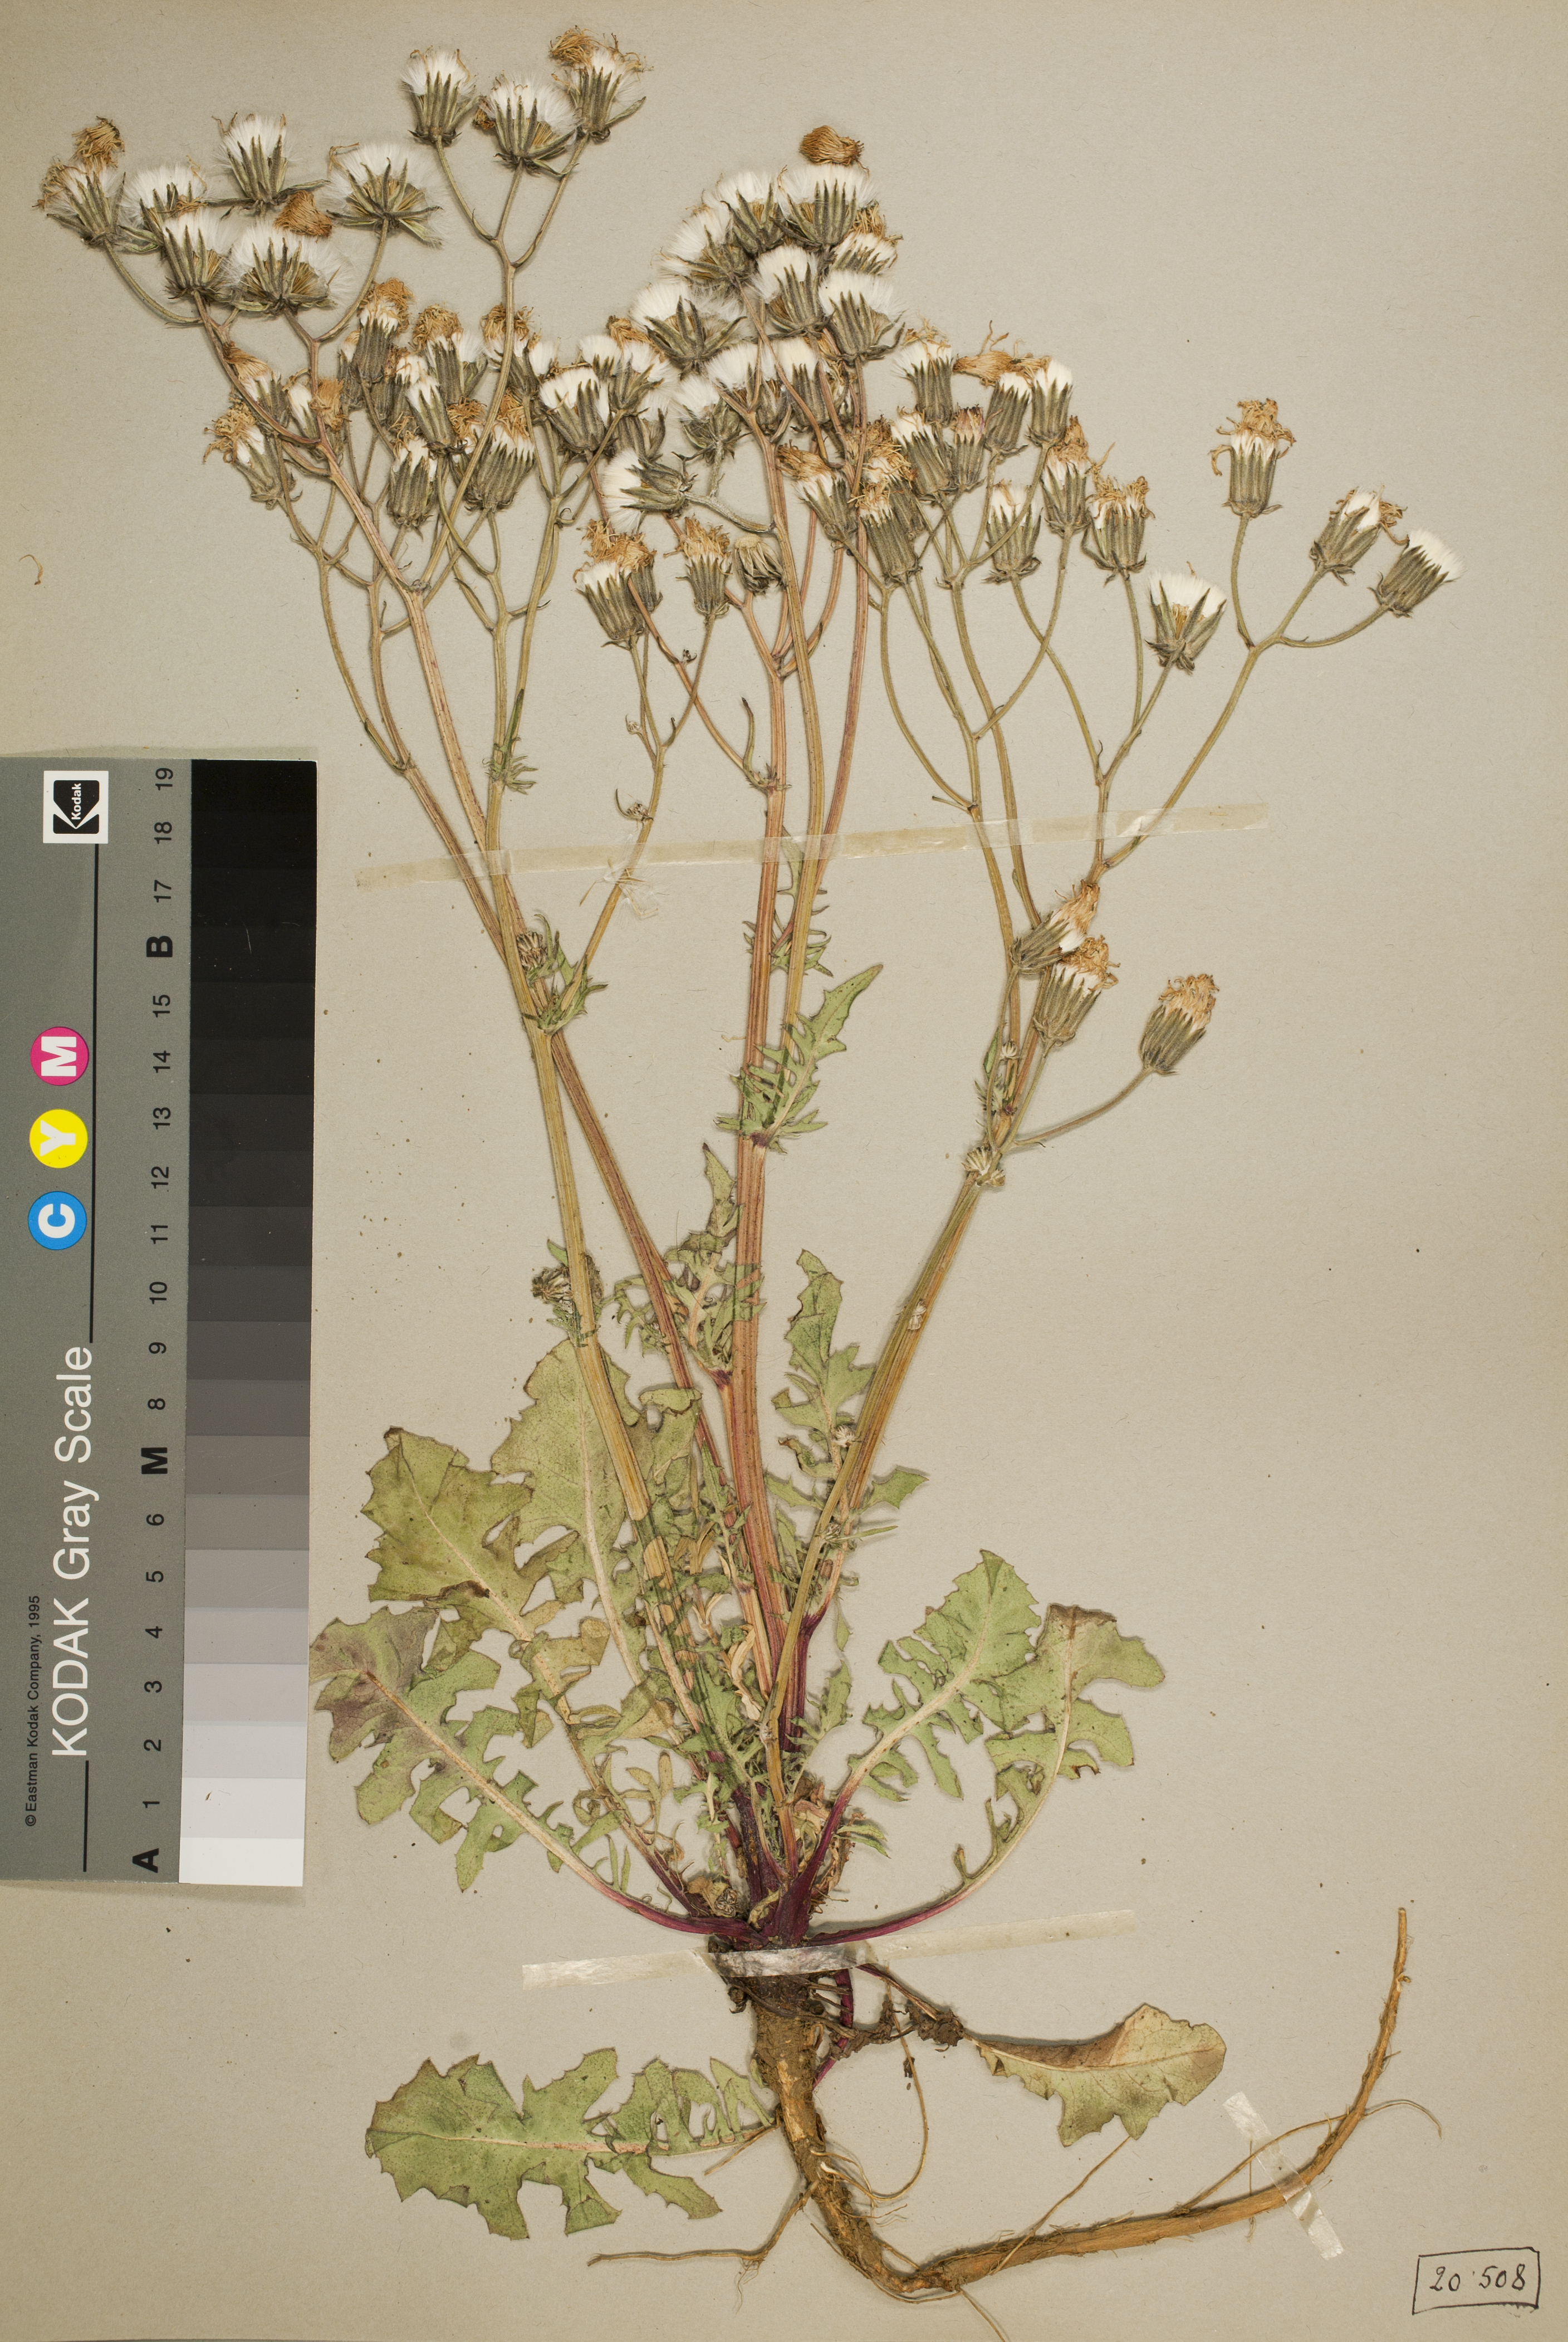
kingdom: Plantae
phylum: Tracheophyta
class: Magnoliopsida
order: Asterales
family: Asteraceae
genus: Crepis
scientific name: Crepis vesicaria
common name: Beaked hawksbeard
